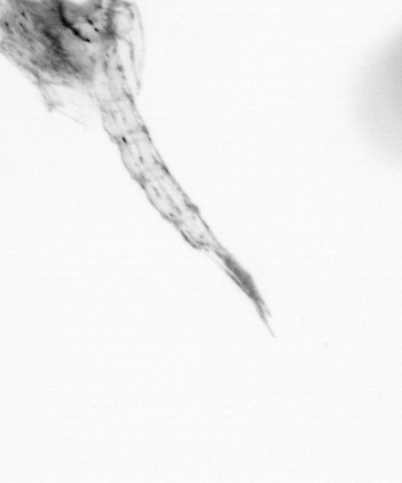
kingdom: Animalia
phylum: Arthropoda
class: Copepoda
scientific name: Copepoda
